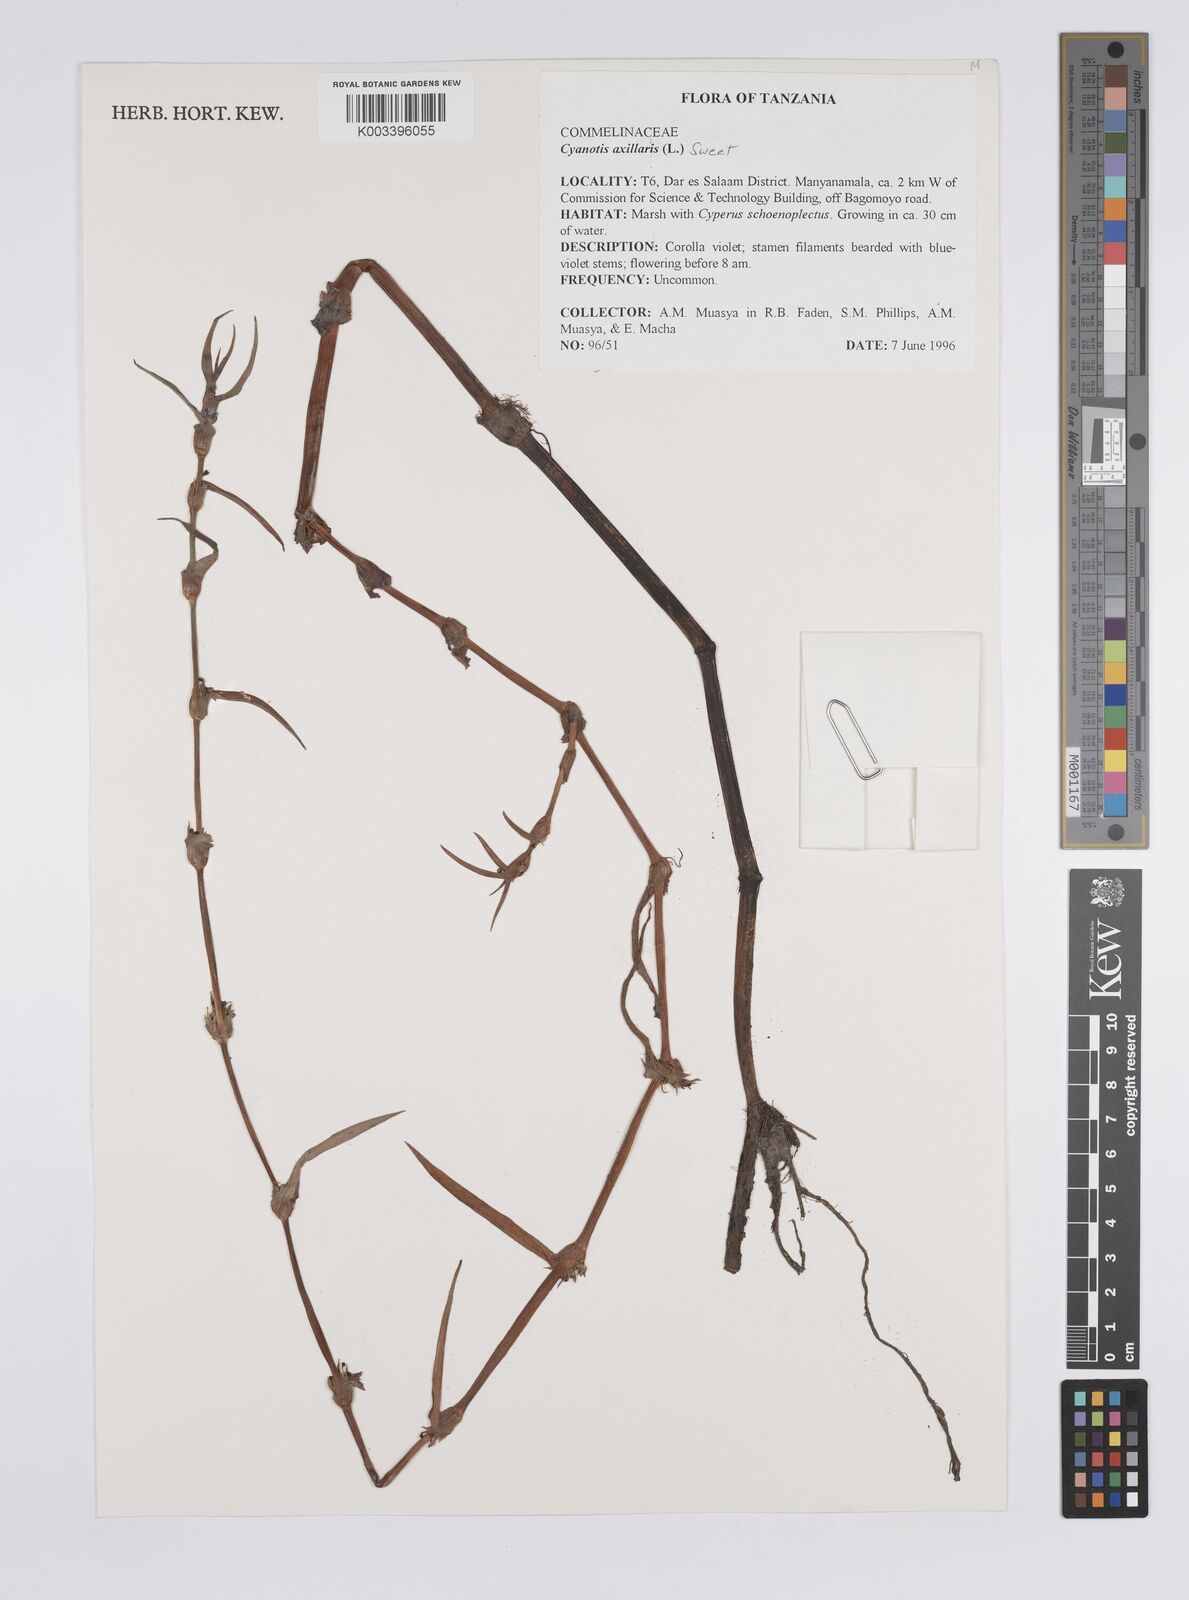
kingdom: Plantae
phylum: Tracheophyta
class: Liliopsida
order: Commelinales
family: Commelinaceae
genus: Cyanotis
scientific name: Cyanotis axillaris
